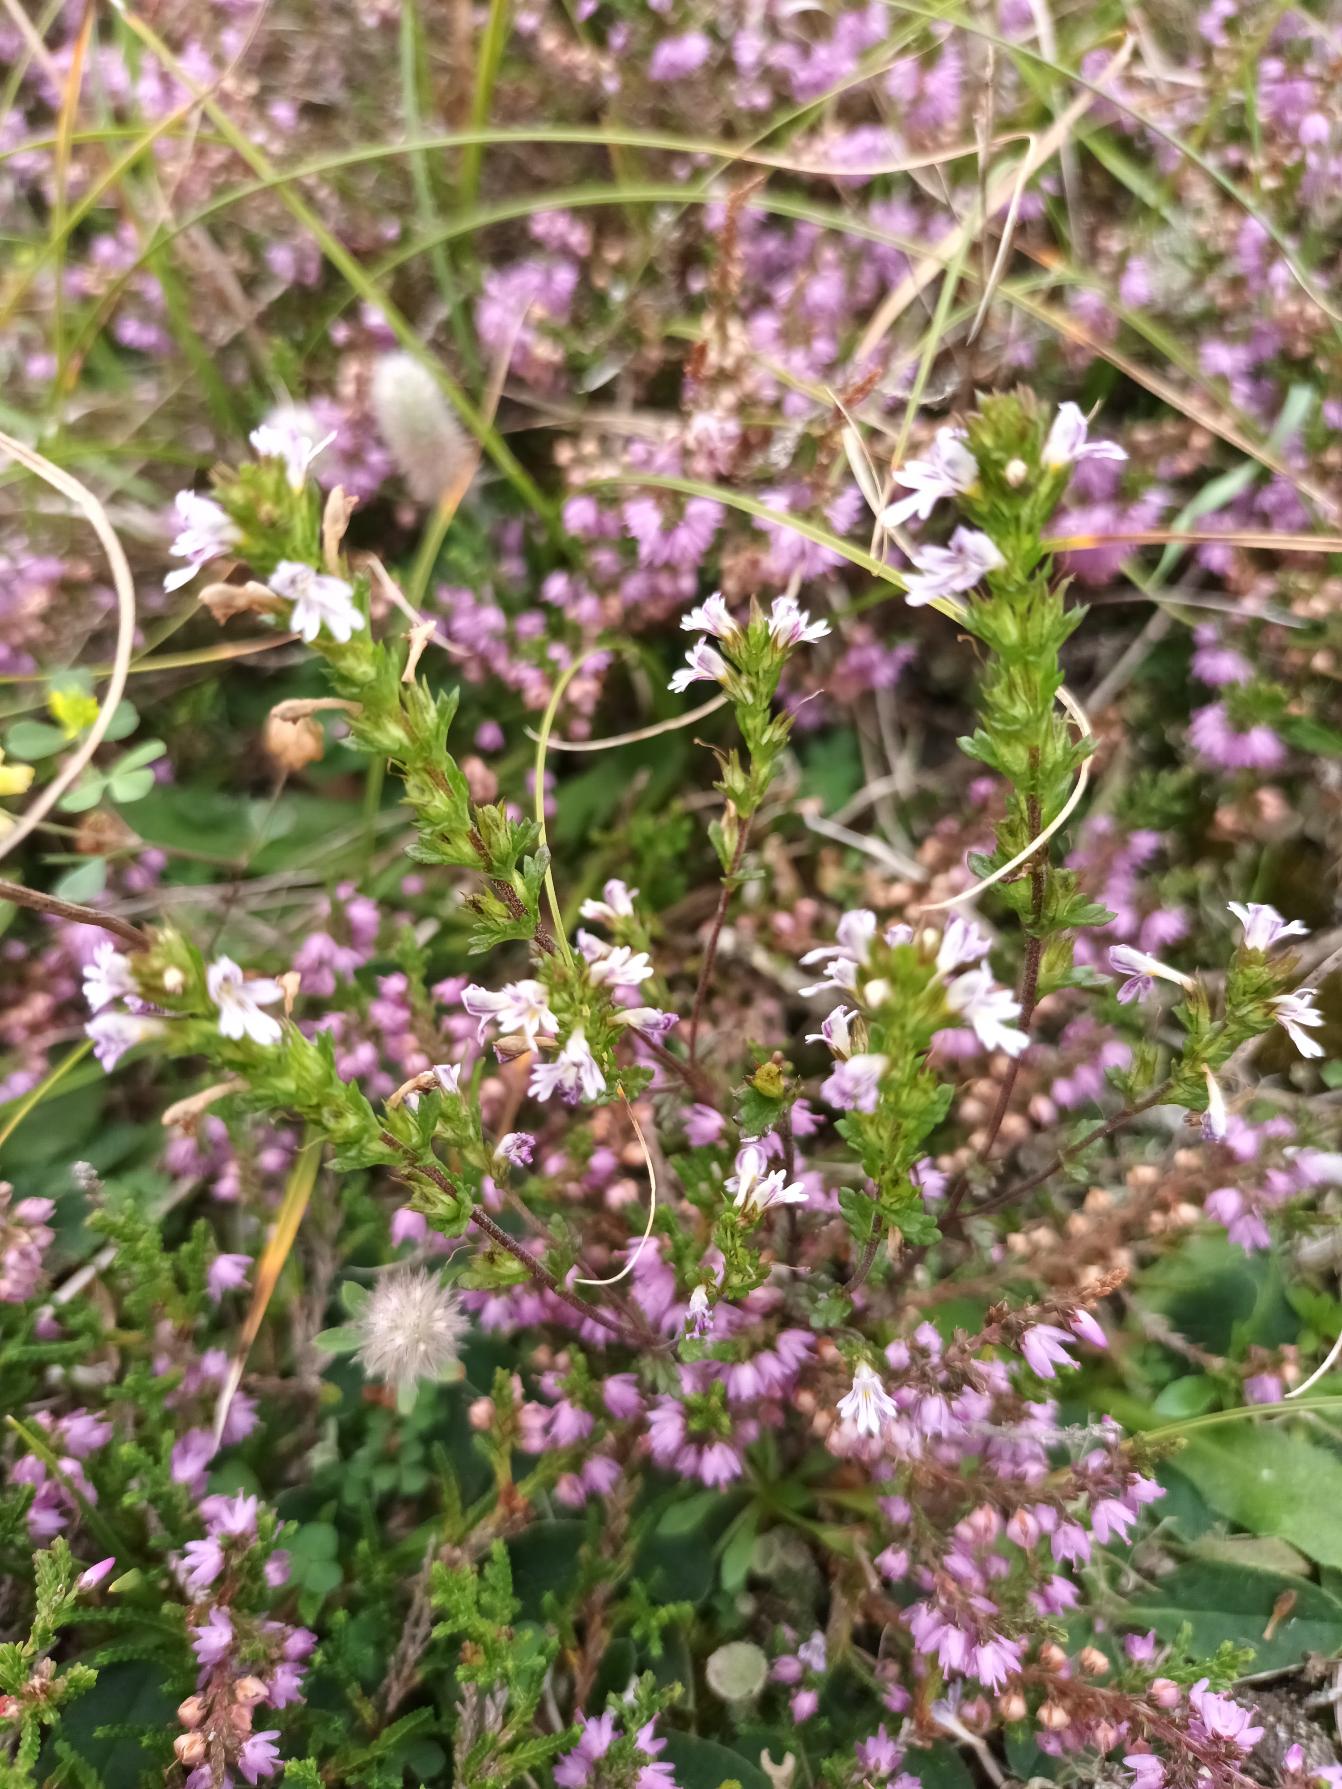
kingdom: Plantae
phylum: Tracheophyta
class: Magnoliopsida
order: Lamiales
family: Orobanchaceae
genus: Euphrasia
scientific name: Euphrasia micrantha
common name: Lyng-øjentrøst
